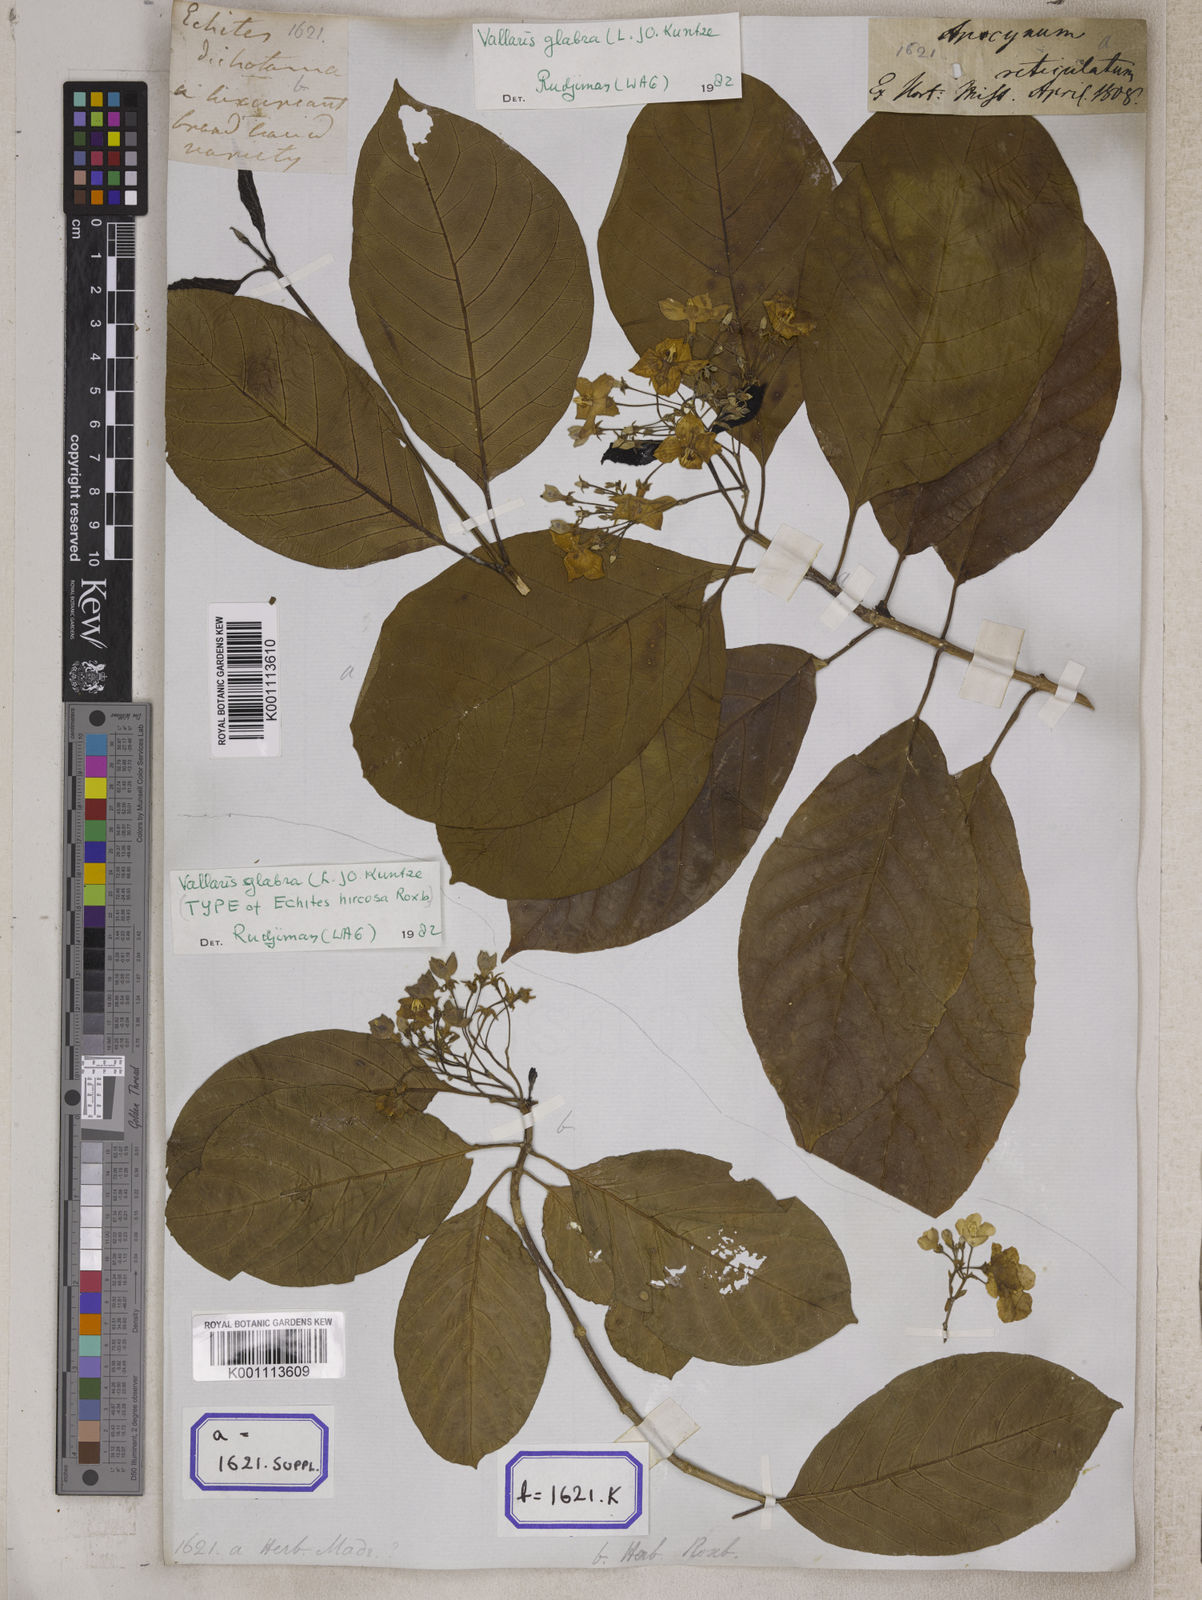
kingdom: Plantae
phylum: Tracheophyta
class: Magnoliopsida
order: Gentianales
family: Apocynaceae
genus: Vallaris
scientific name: Vallaris glabra
